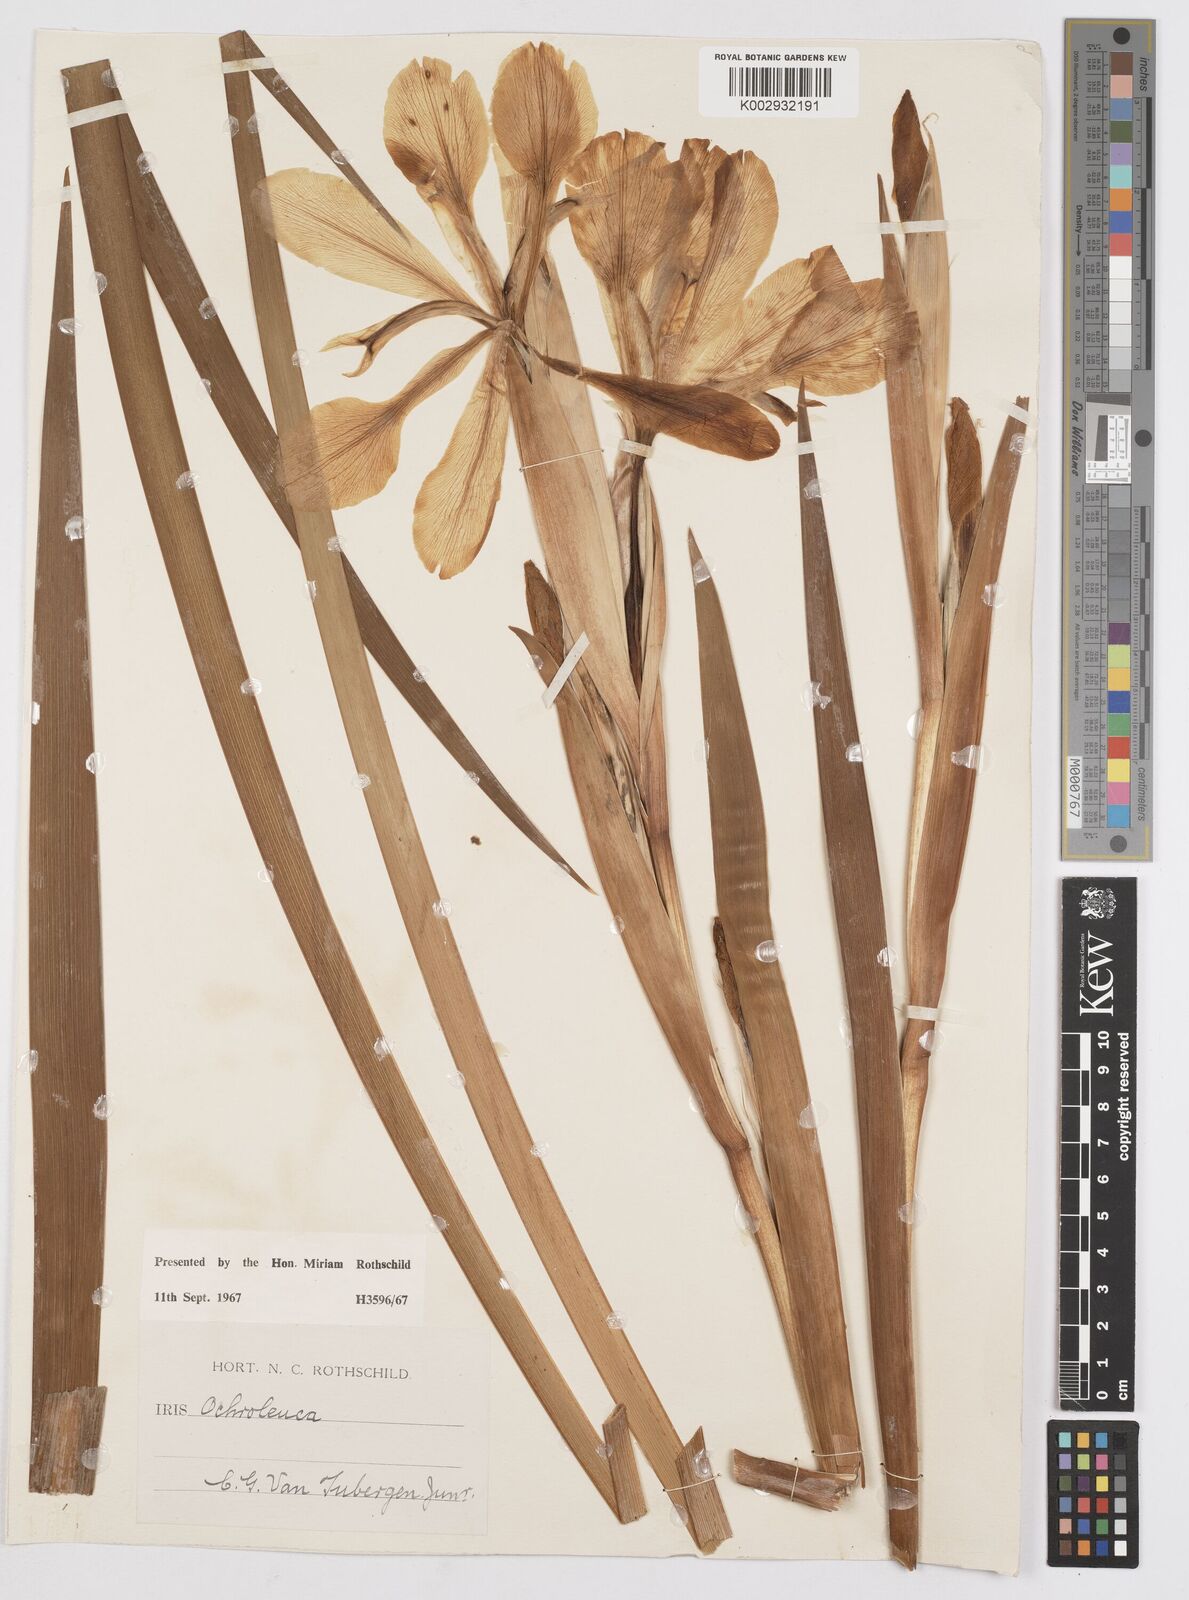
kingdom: Plantae
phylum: Tracheophyta
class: Liliopsida
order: Asparagales
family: Iridaceae
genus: Iris
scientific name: Iris orientalis
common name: Turkish iris
